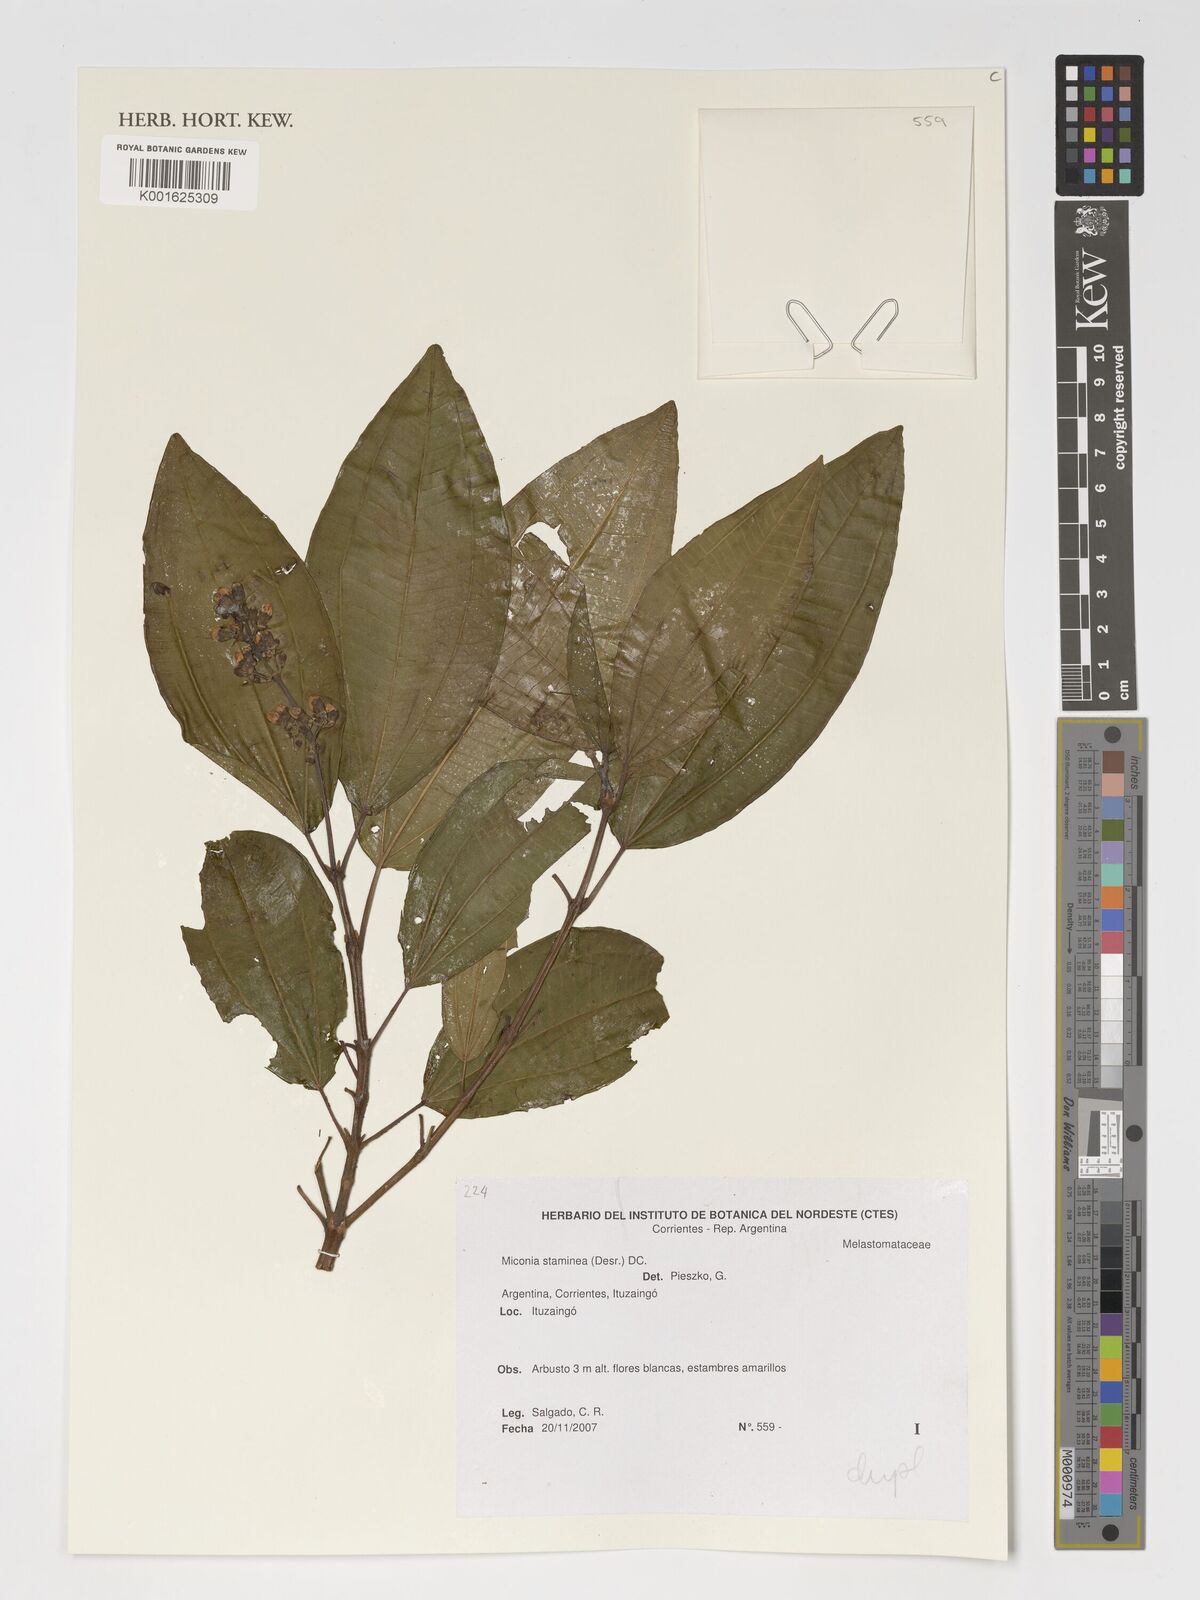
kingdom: Plantae
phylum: Tracheophyta
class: Magnoliopsida
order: Myrtales
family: Melastomataceae
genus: Miconia
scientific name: Miconia staminea
